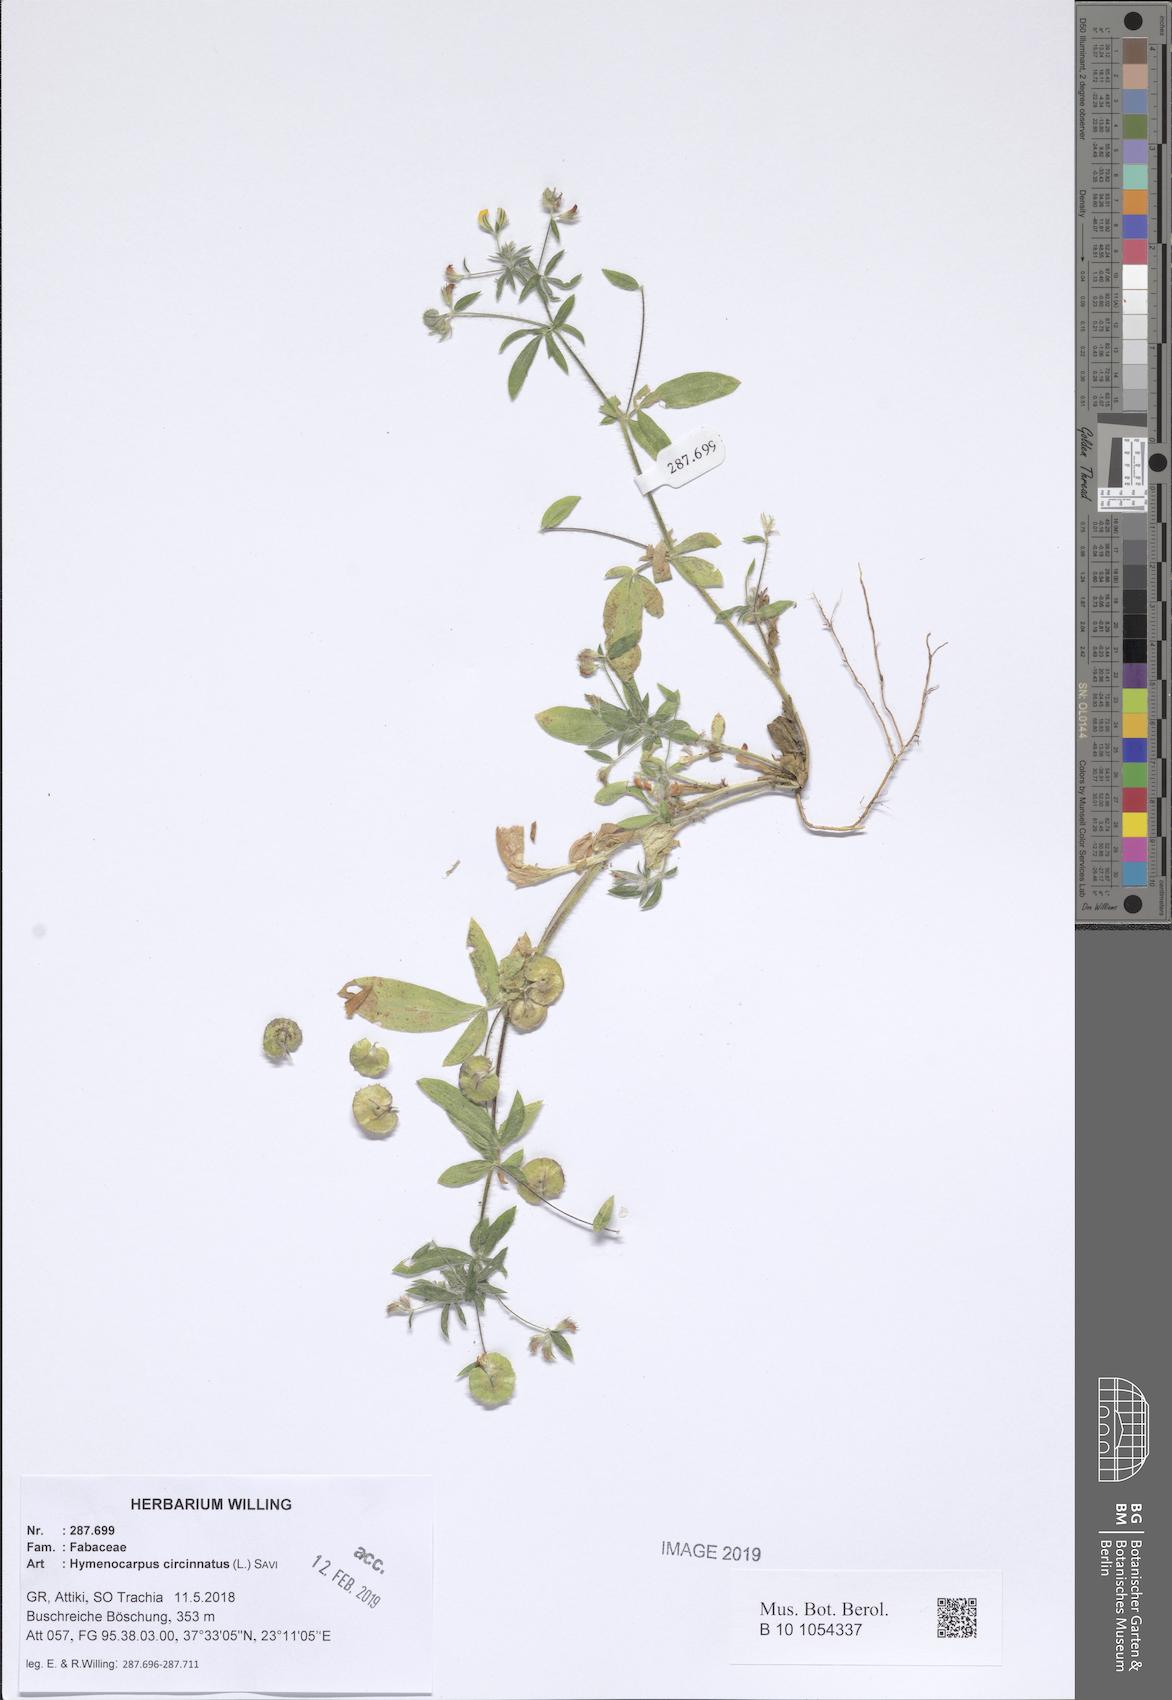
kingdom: Plantae
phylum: Tracheophyta
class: Magnoliopsida
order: Fabales
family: Fabaceae
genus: Anthyllis
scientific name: Anthyllis circinnata
